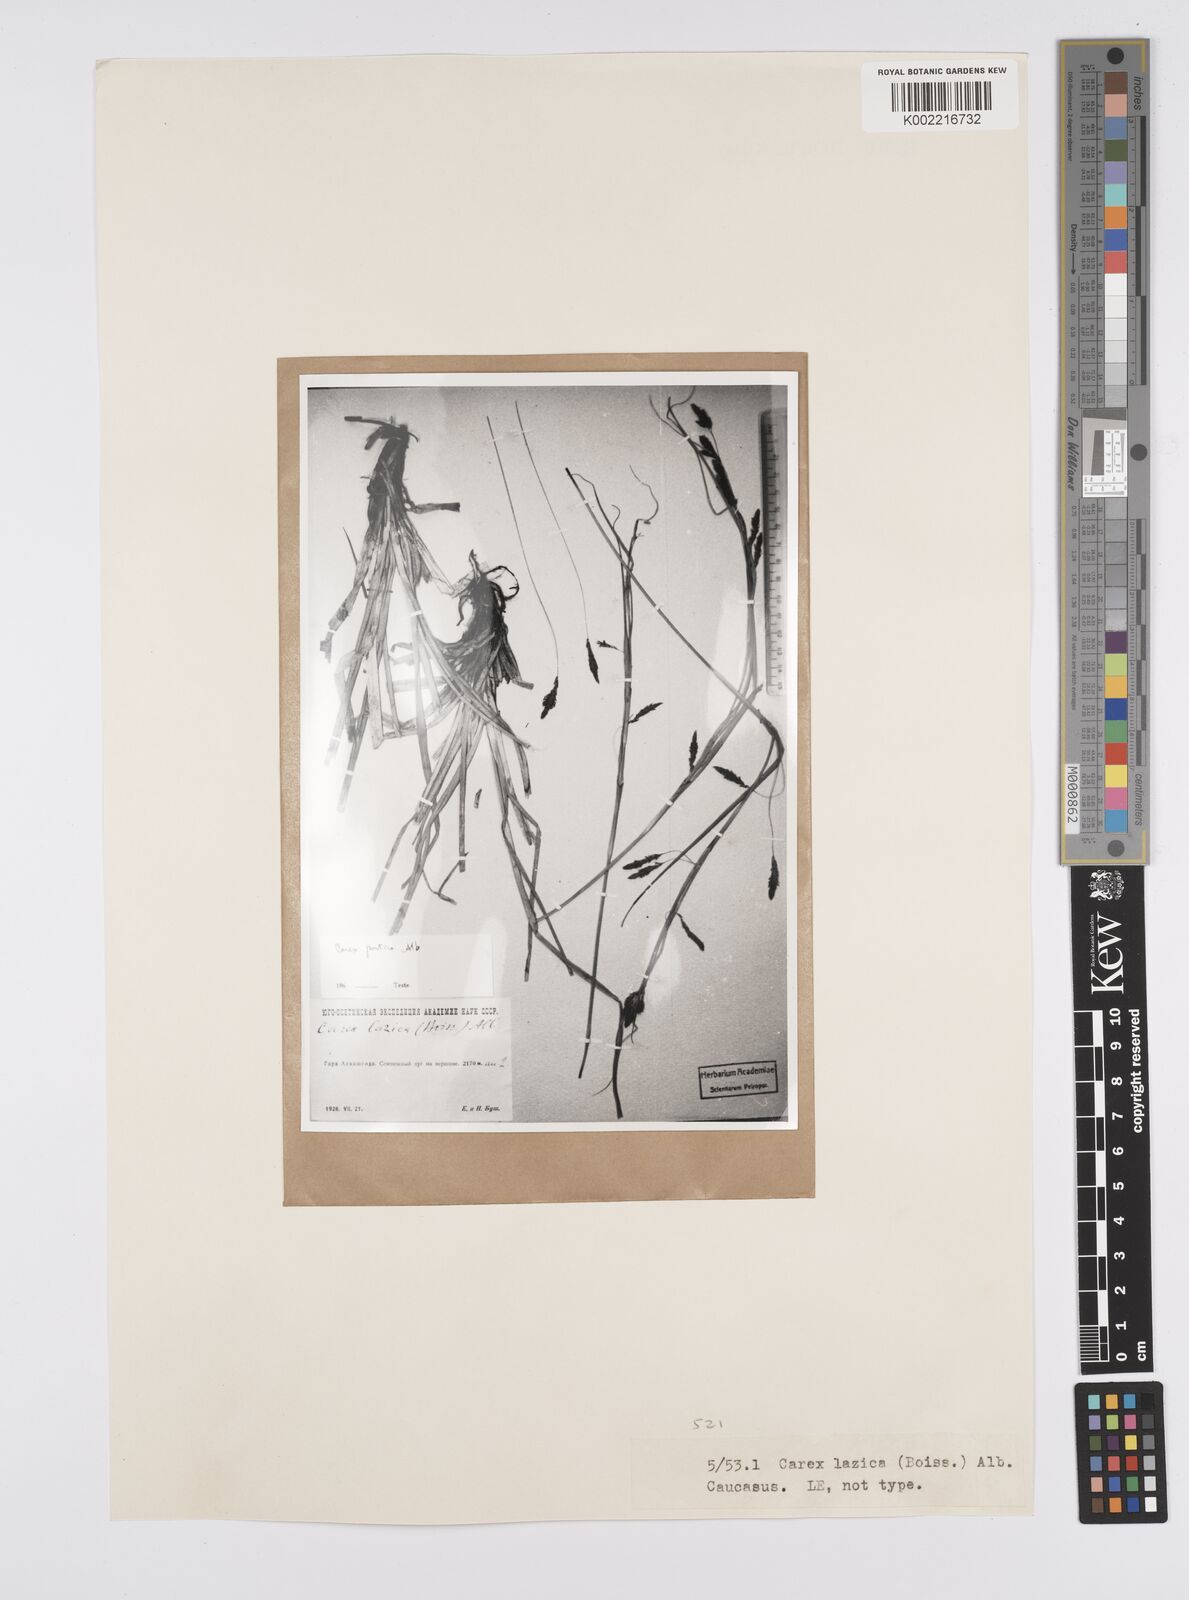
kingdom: Plantae
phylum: Tracheophyta
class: Liliopsida
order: Poales
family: Cyperaceae
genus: Carex
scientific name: Carex
